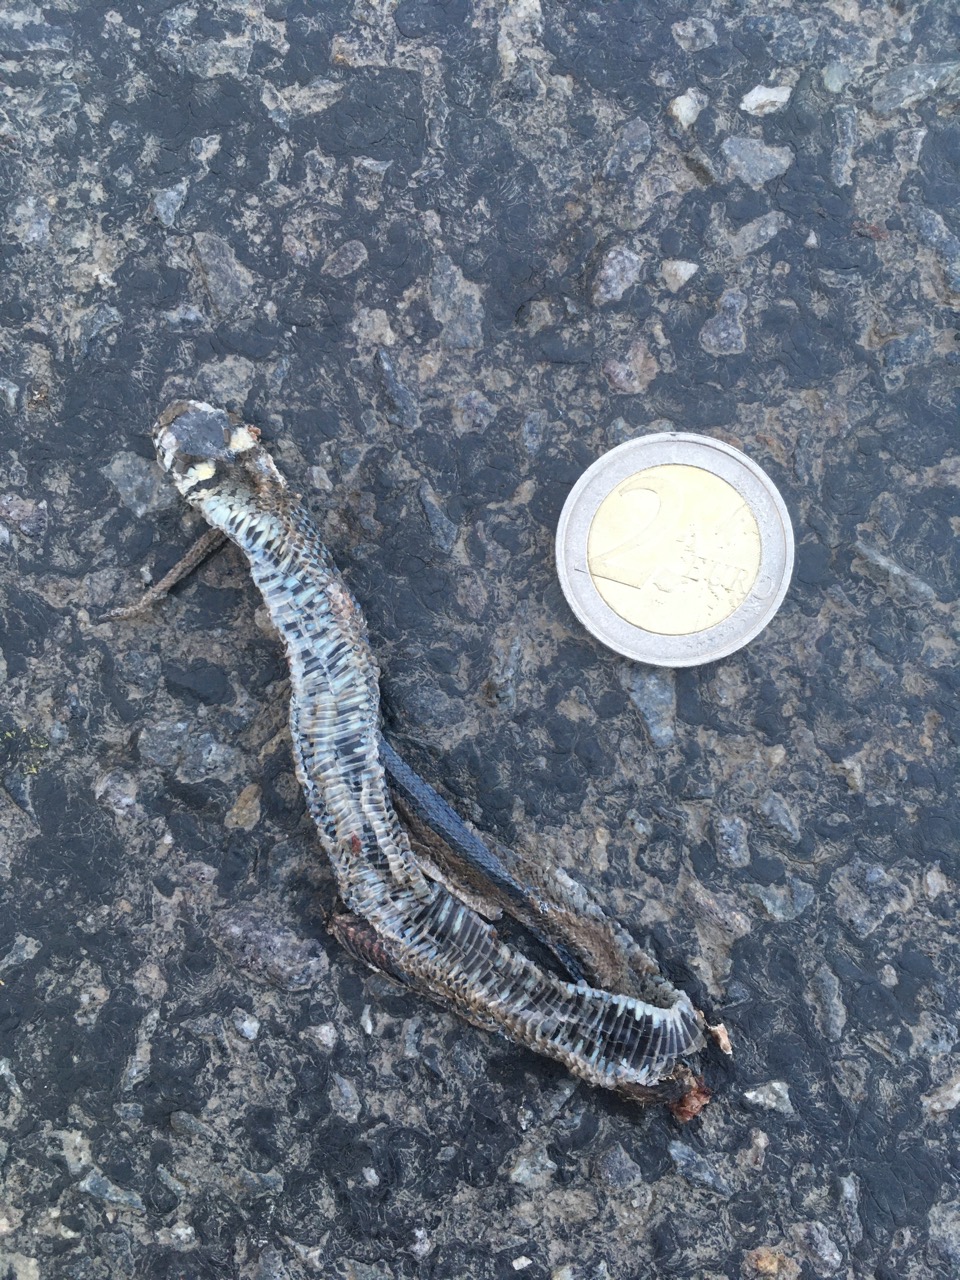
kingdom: Animalia
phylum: Chordata
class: Squamata
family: Colubridae
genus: Natrix
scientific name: Natrix natrix
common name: Grass snake
